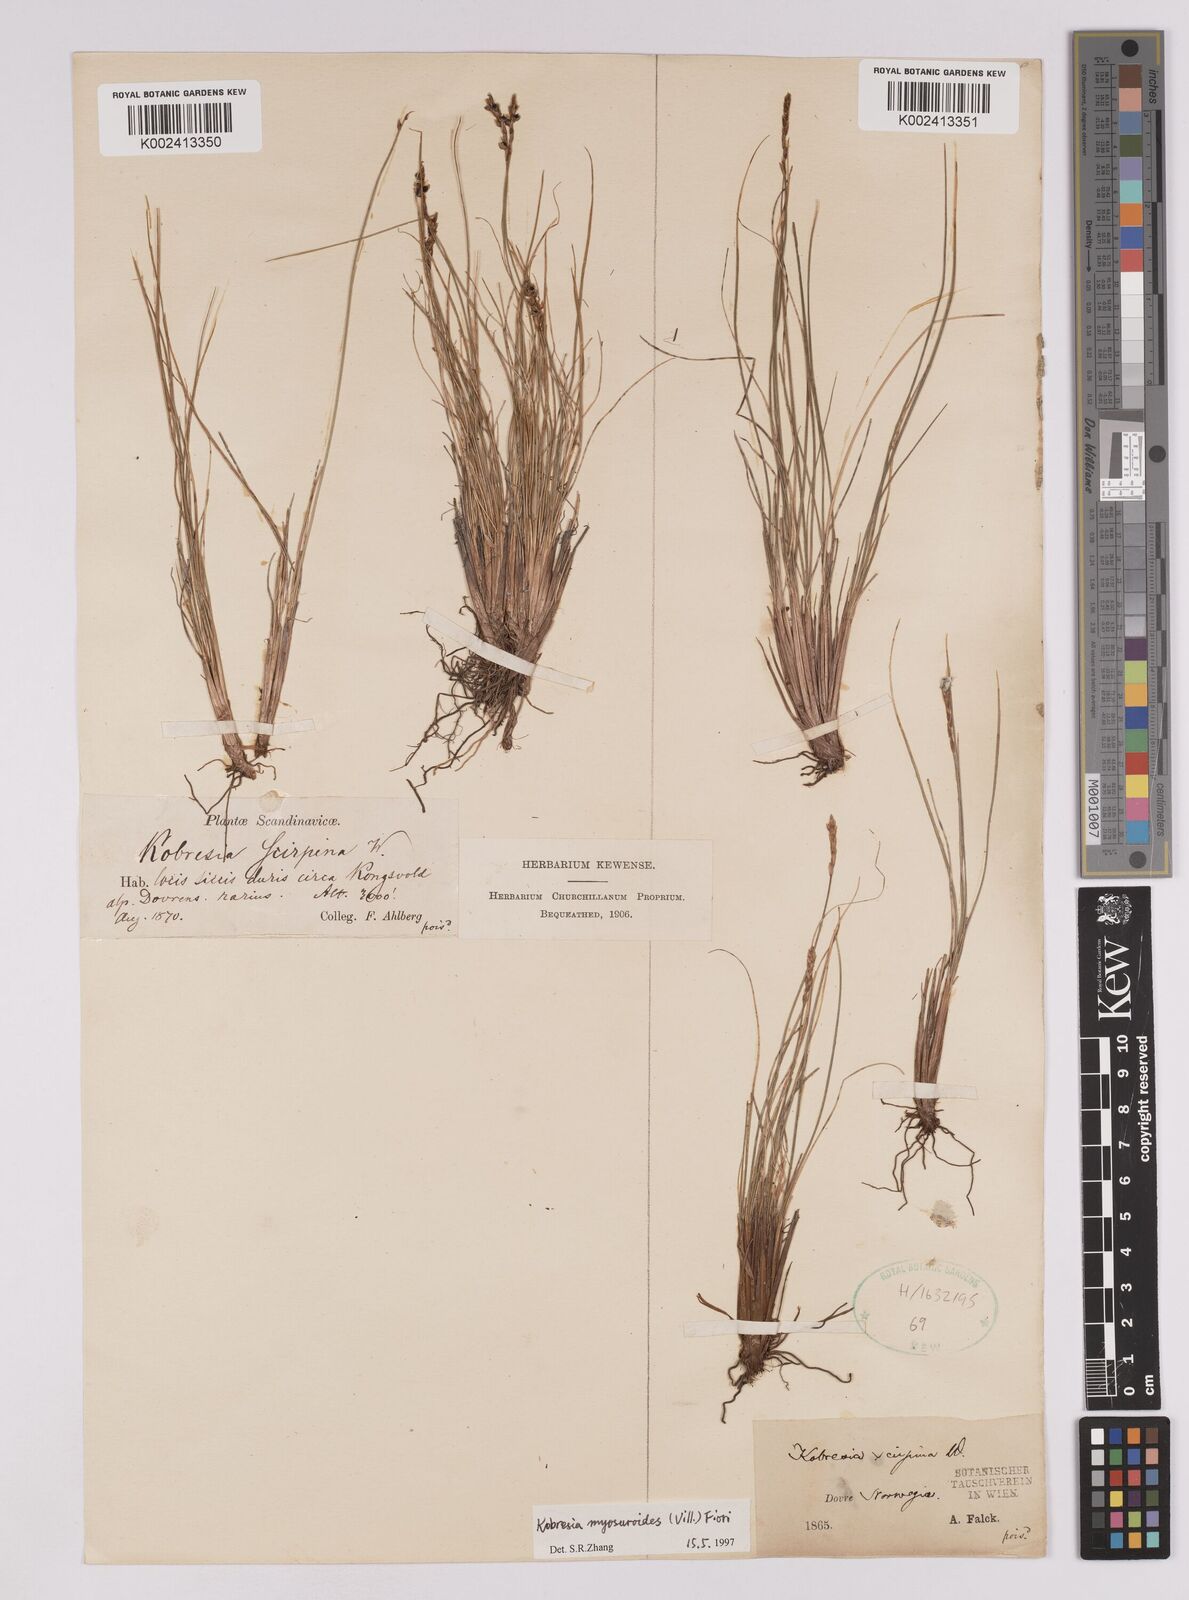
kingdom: Plantae
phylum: Tracheophyta
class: Liliopsida
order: Poales
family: Cyperaceae
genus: Carex
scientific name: Carex myosuroides
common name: Bellard's bog sedge
